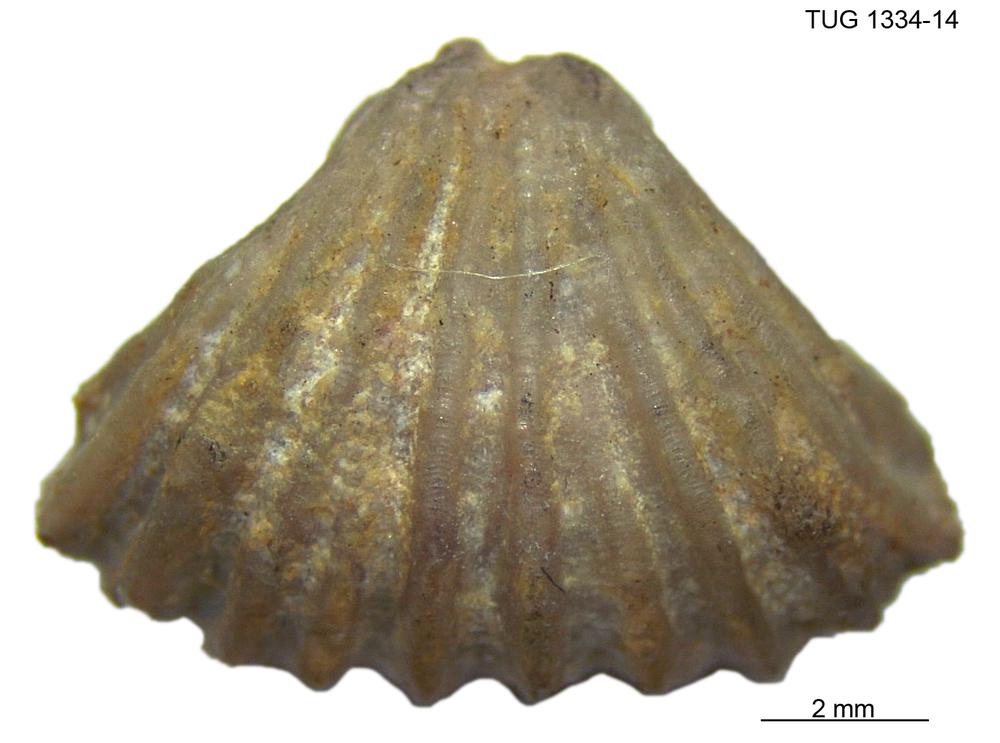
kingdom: Animalia
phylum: Brachiopoda
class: Rhynchonellata
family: Parallelelasmatidae
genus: Metacamarella
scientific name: Metacamarella
